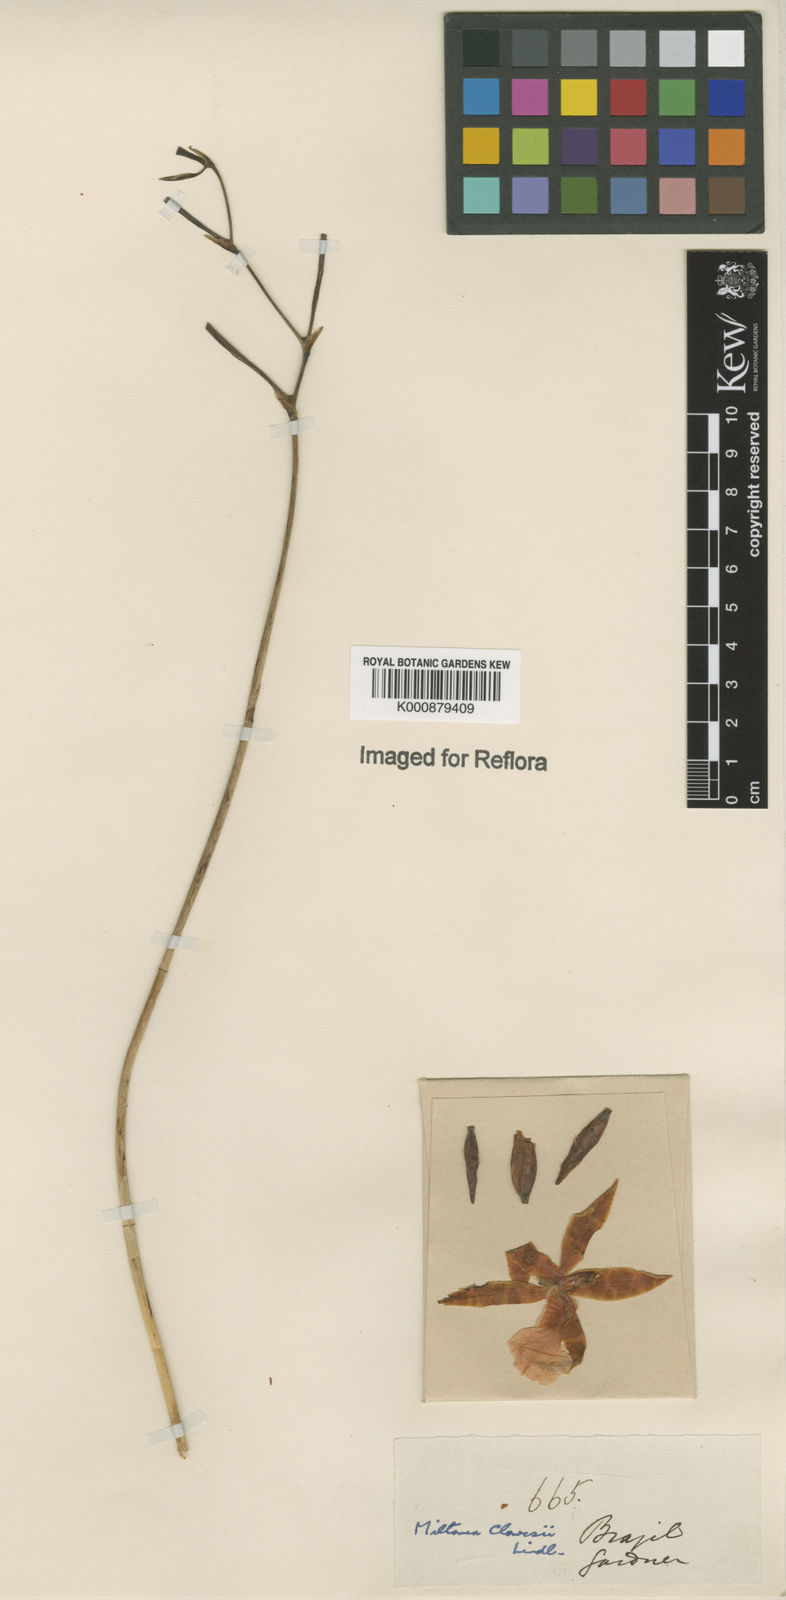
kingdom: Plantae
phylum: Tracheophyta
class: Liliopsida
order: Asparagales
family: Orchidaceae
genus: Miltonia
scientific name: Miltonia clowesii
